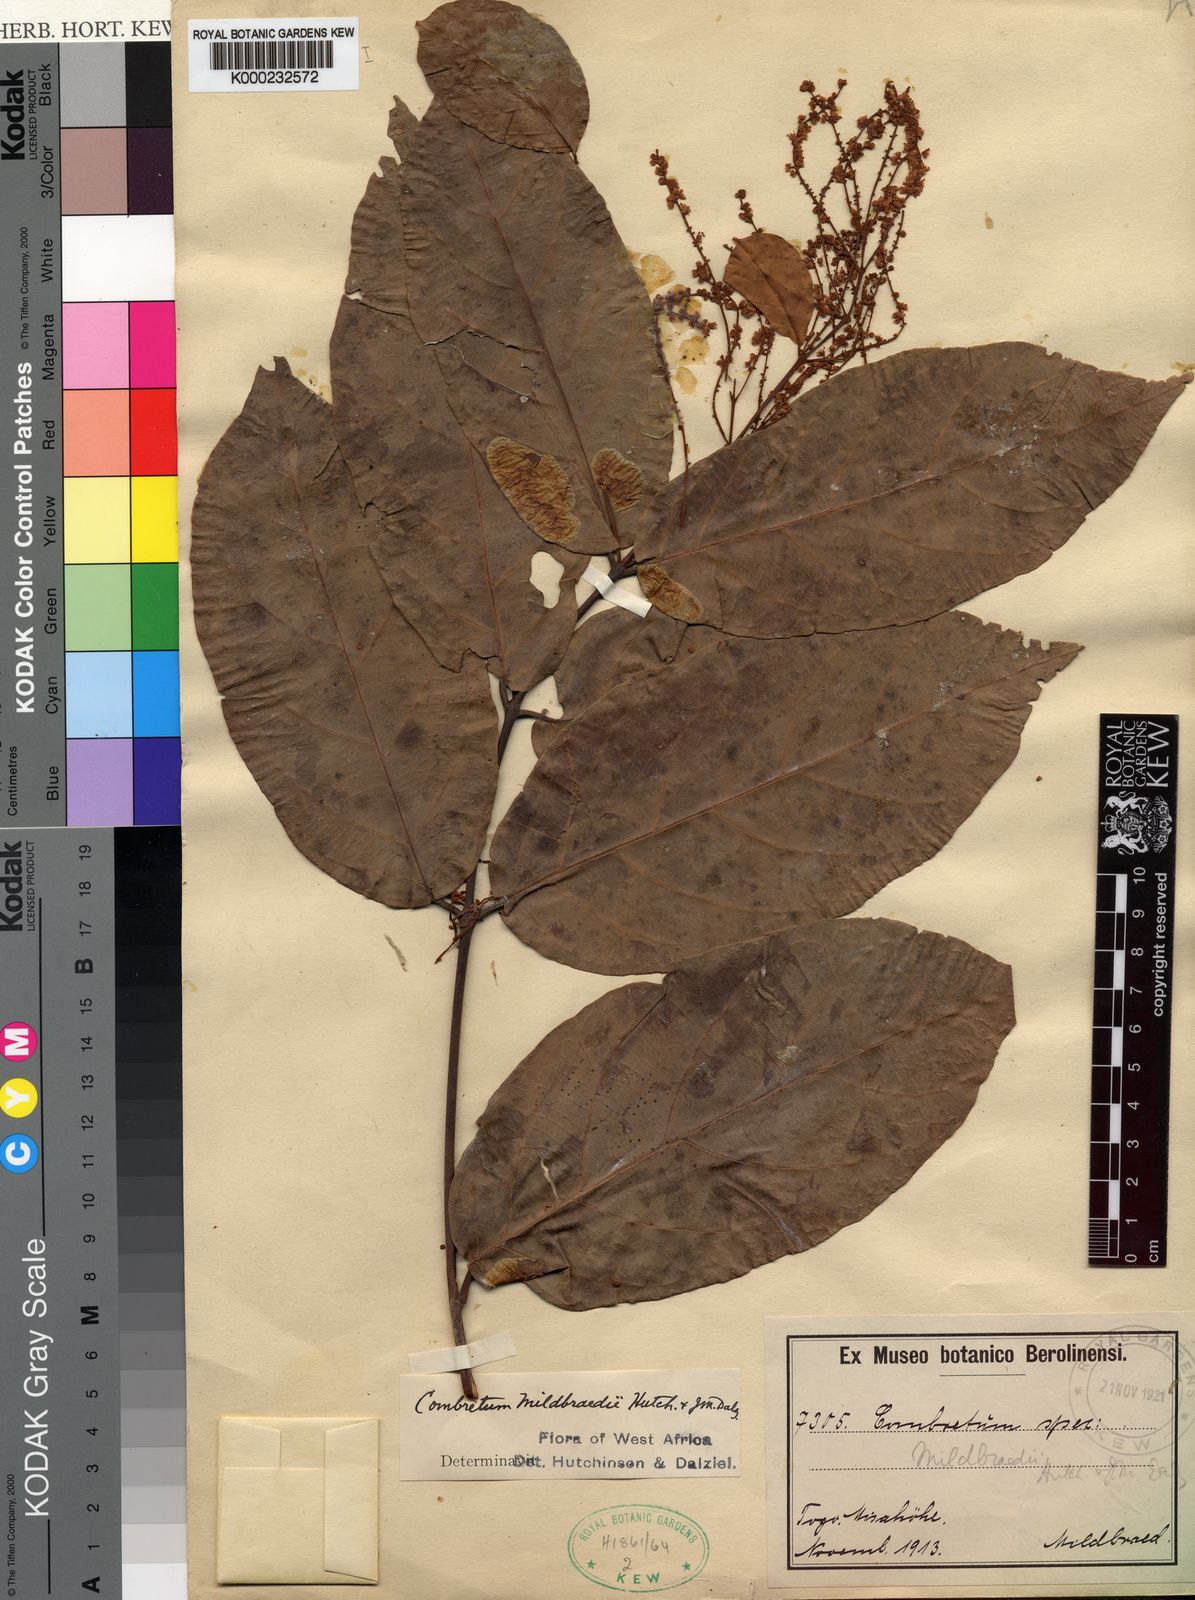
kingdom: Plantae
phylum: Tracheophyta
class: Magnoliopsida
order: Myrtales
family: Combretaceae
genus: Combretum
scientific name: Combretum demeusei
